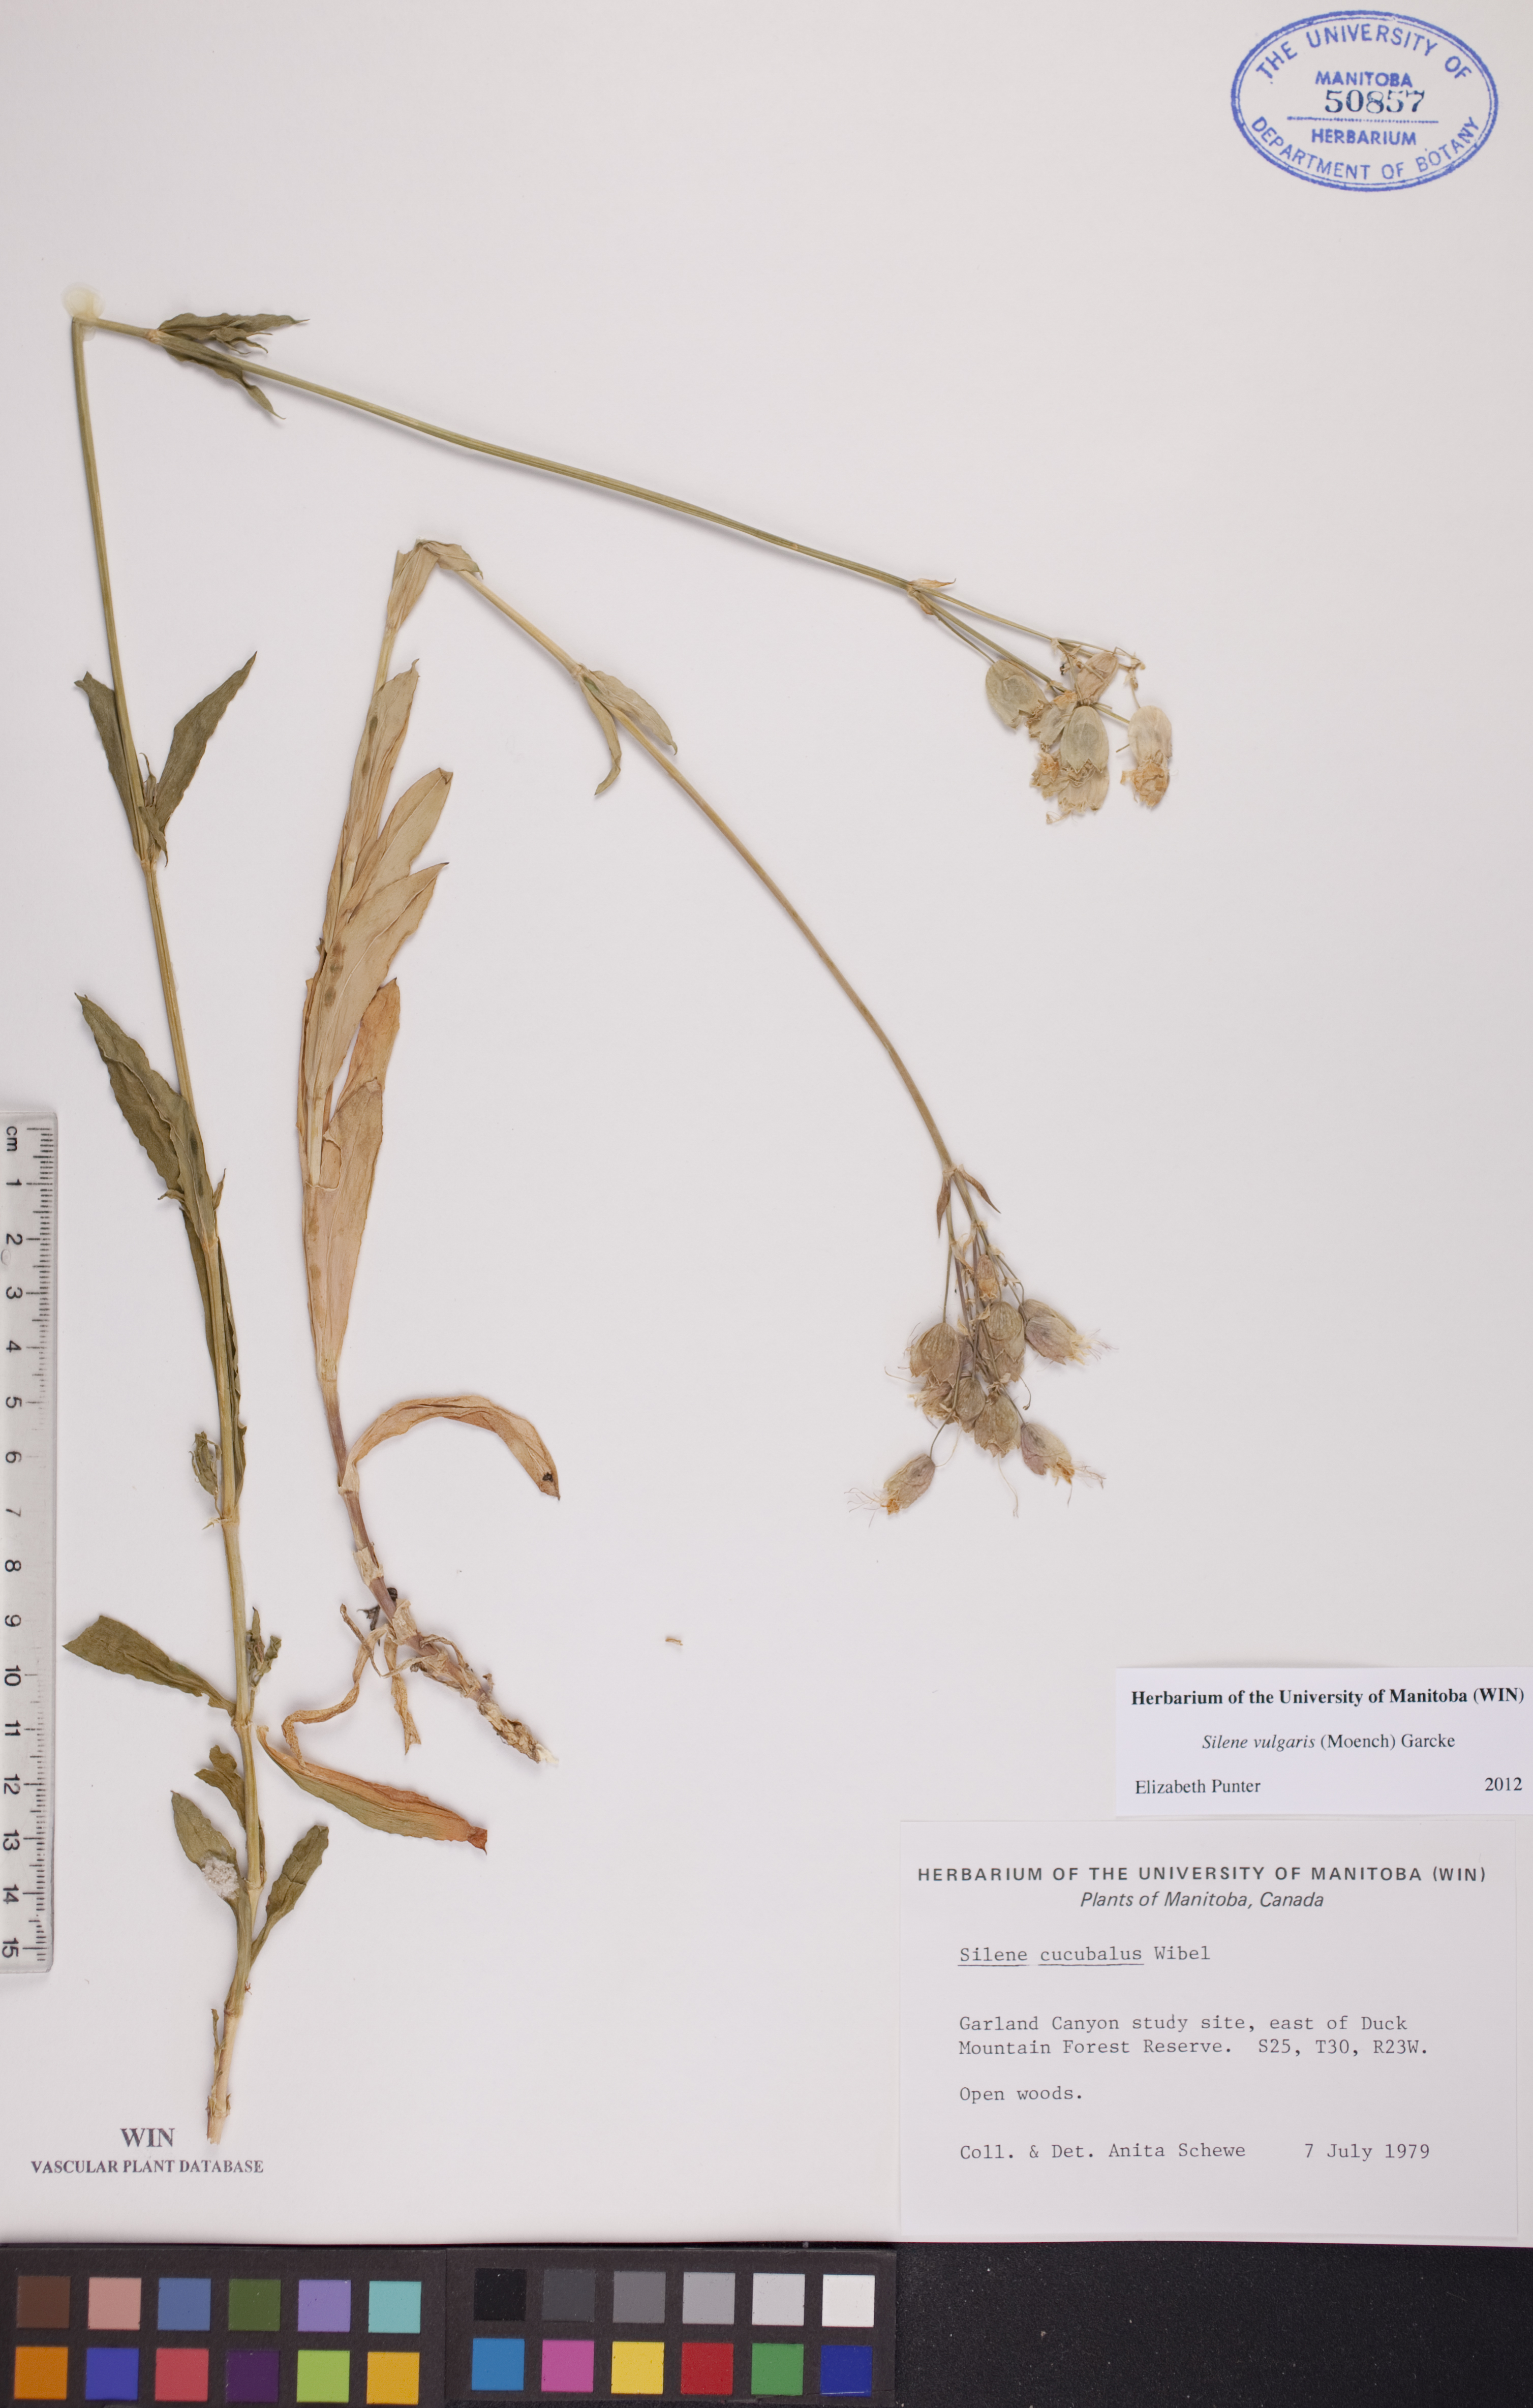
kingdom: Plantae
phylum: Tracheophyta
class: Magnoliopsida
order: Caryophyllales
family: Caryophyllaceae
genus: Silene
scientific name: Silene vulgaris
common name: Bladder campion
